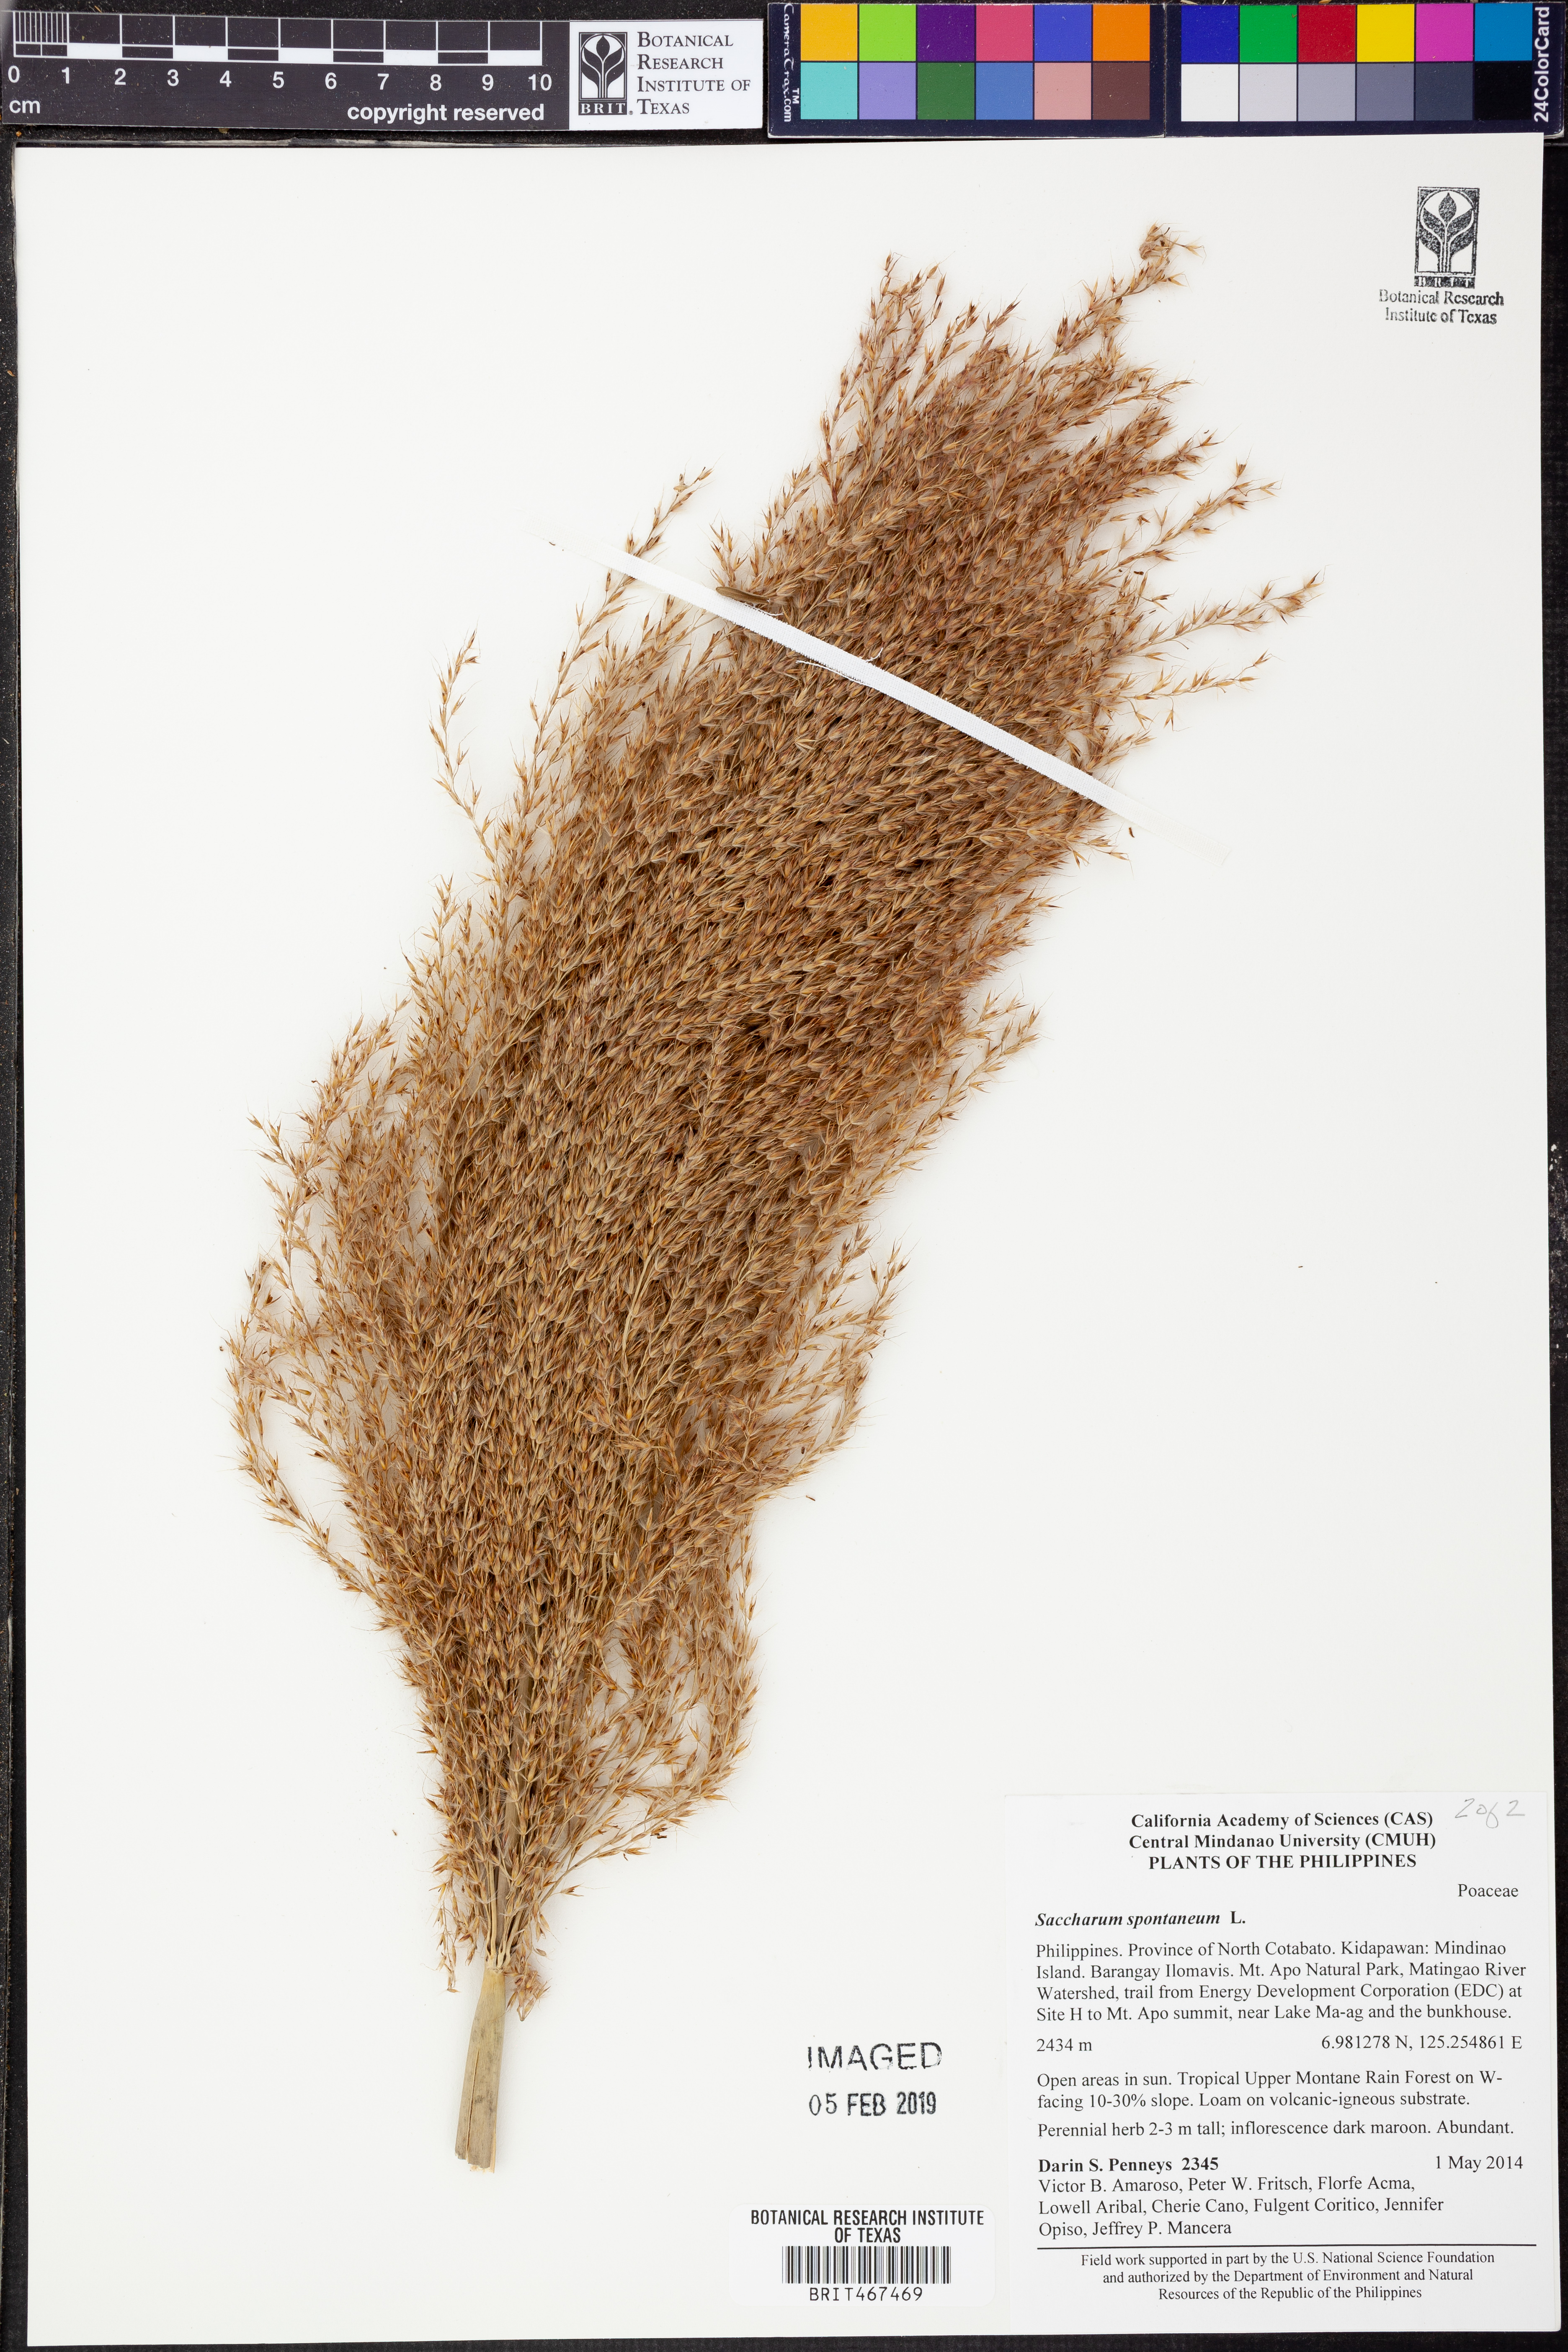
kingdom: Plantae
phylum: Tracheophyta
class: Liliopsida
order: Poales
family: Poaceae
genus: Saccharum
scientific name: Saccharum spontaneum
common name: Wild sugarcane
